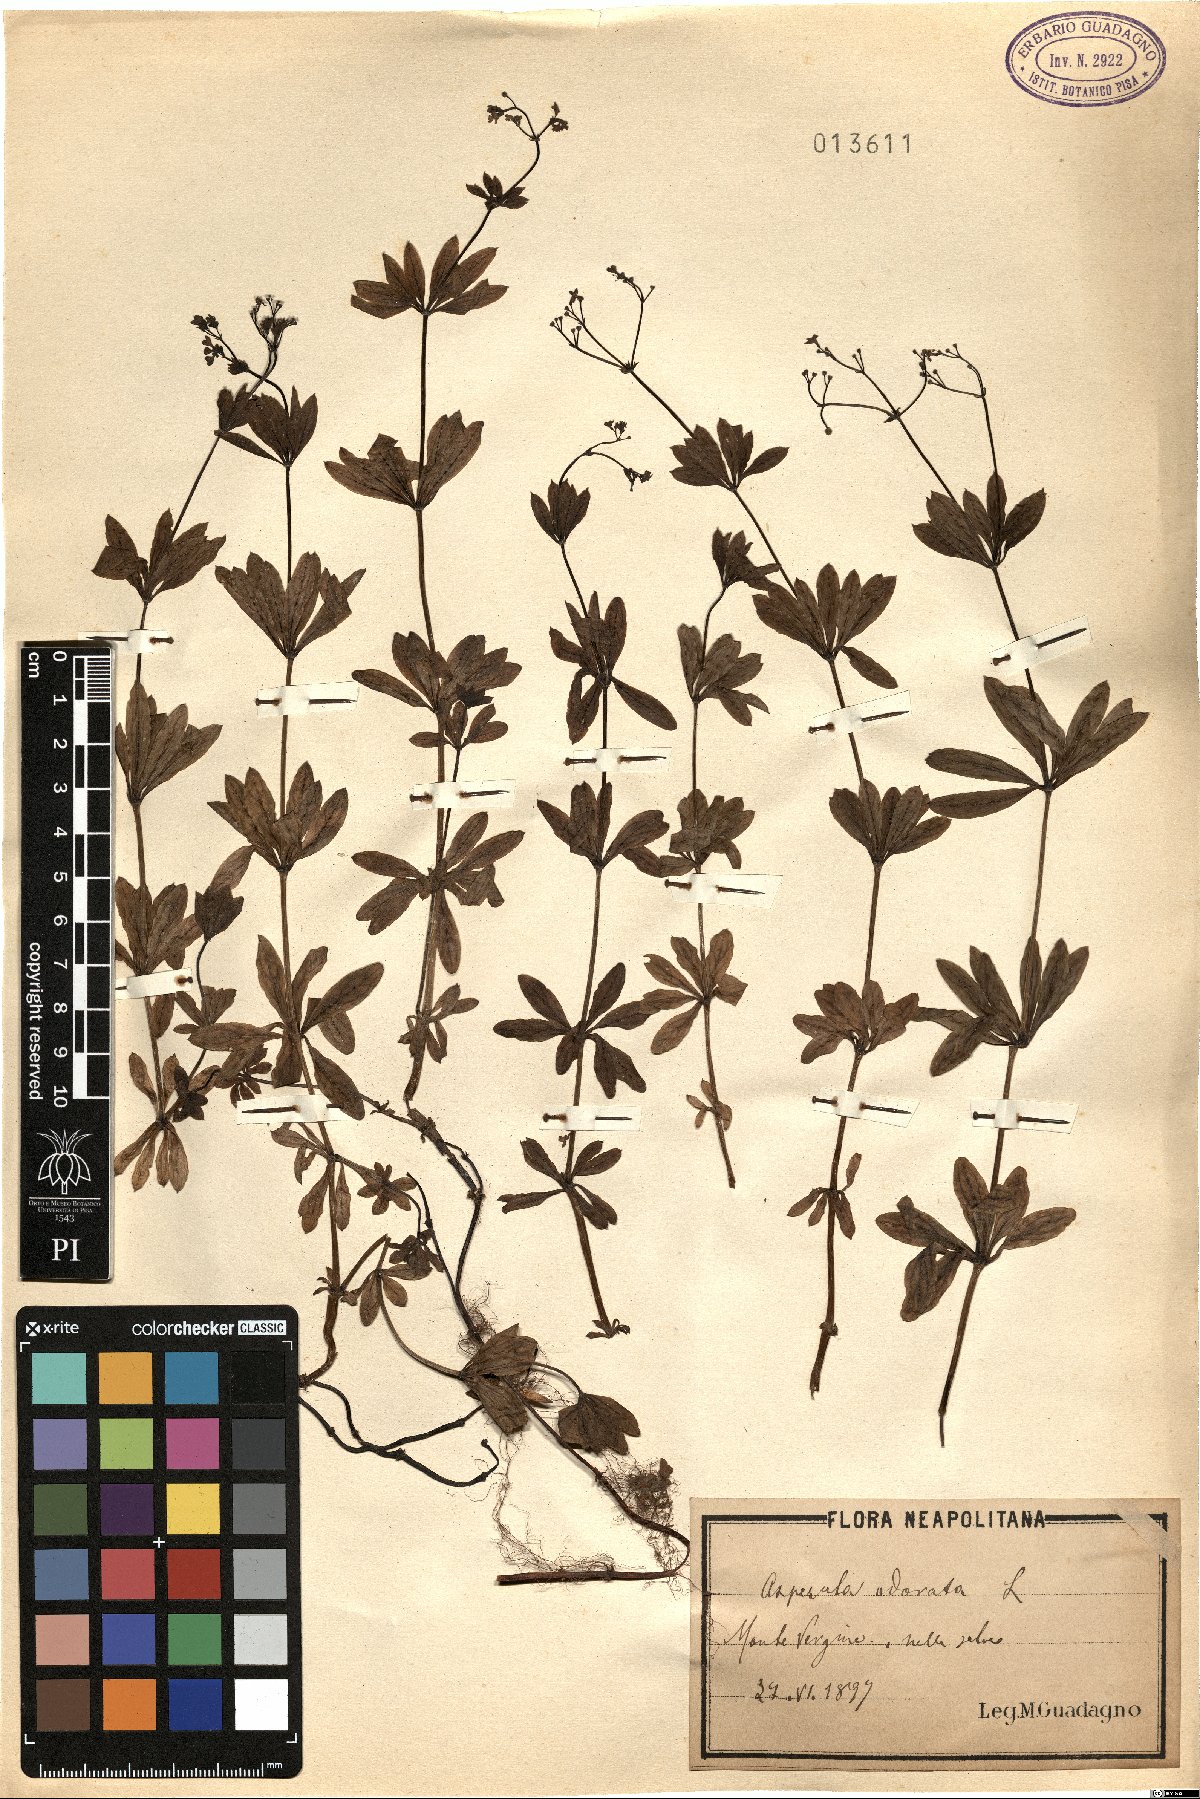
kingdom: Plantae
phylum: Tracheophyta
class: Magnoliopsida
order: Gentianales
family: Rubiaceae
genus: Galium
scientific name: Galium odoratum
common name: Sweet woodruff
